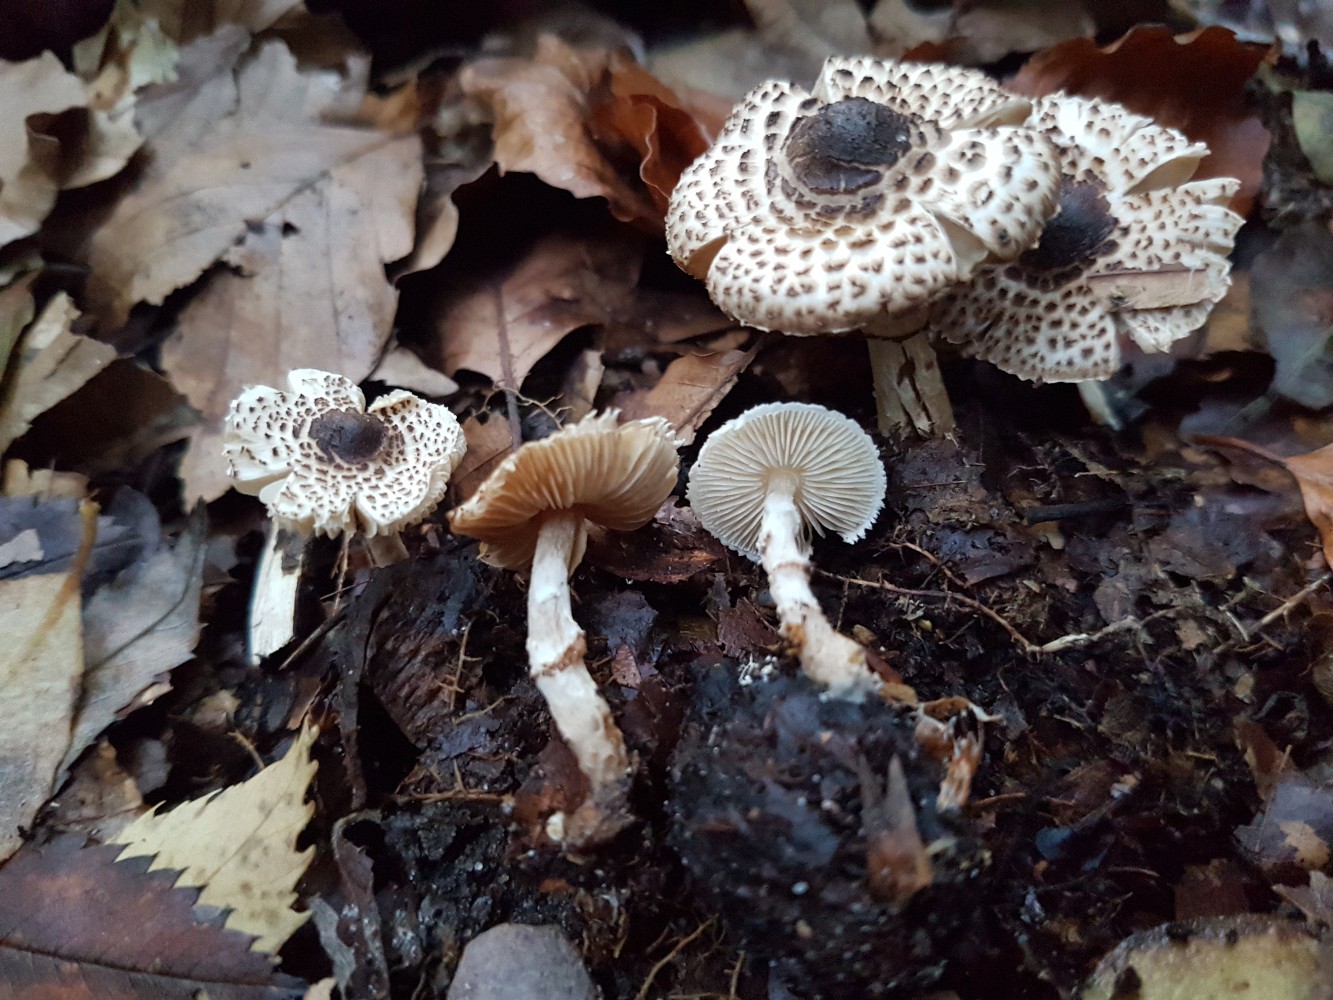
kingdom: Fungi
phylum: Basidiomycota
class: Agaricomycetes
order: Agaricales
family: Agaricaceae
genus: Lepiota
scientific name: Lepiota felina
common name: sortskællet parasolhat
